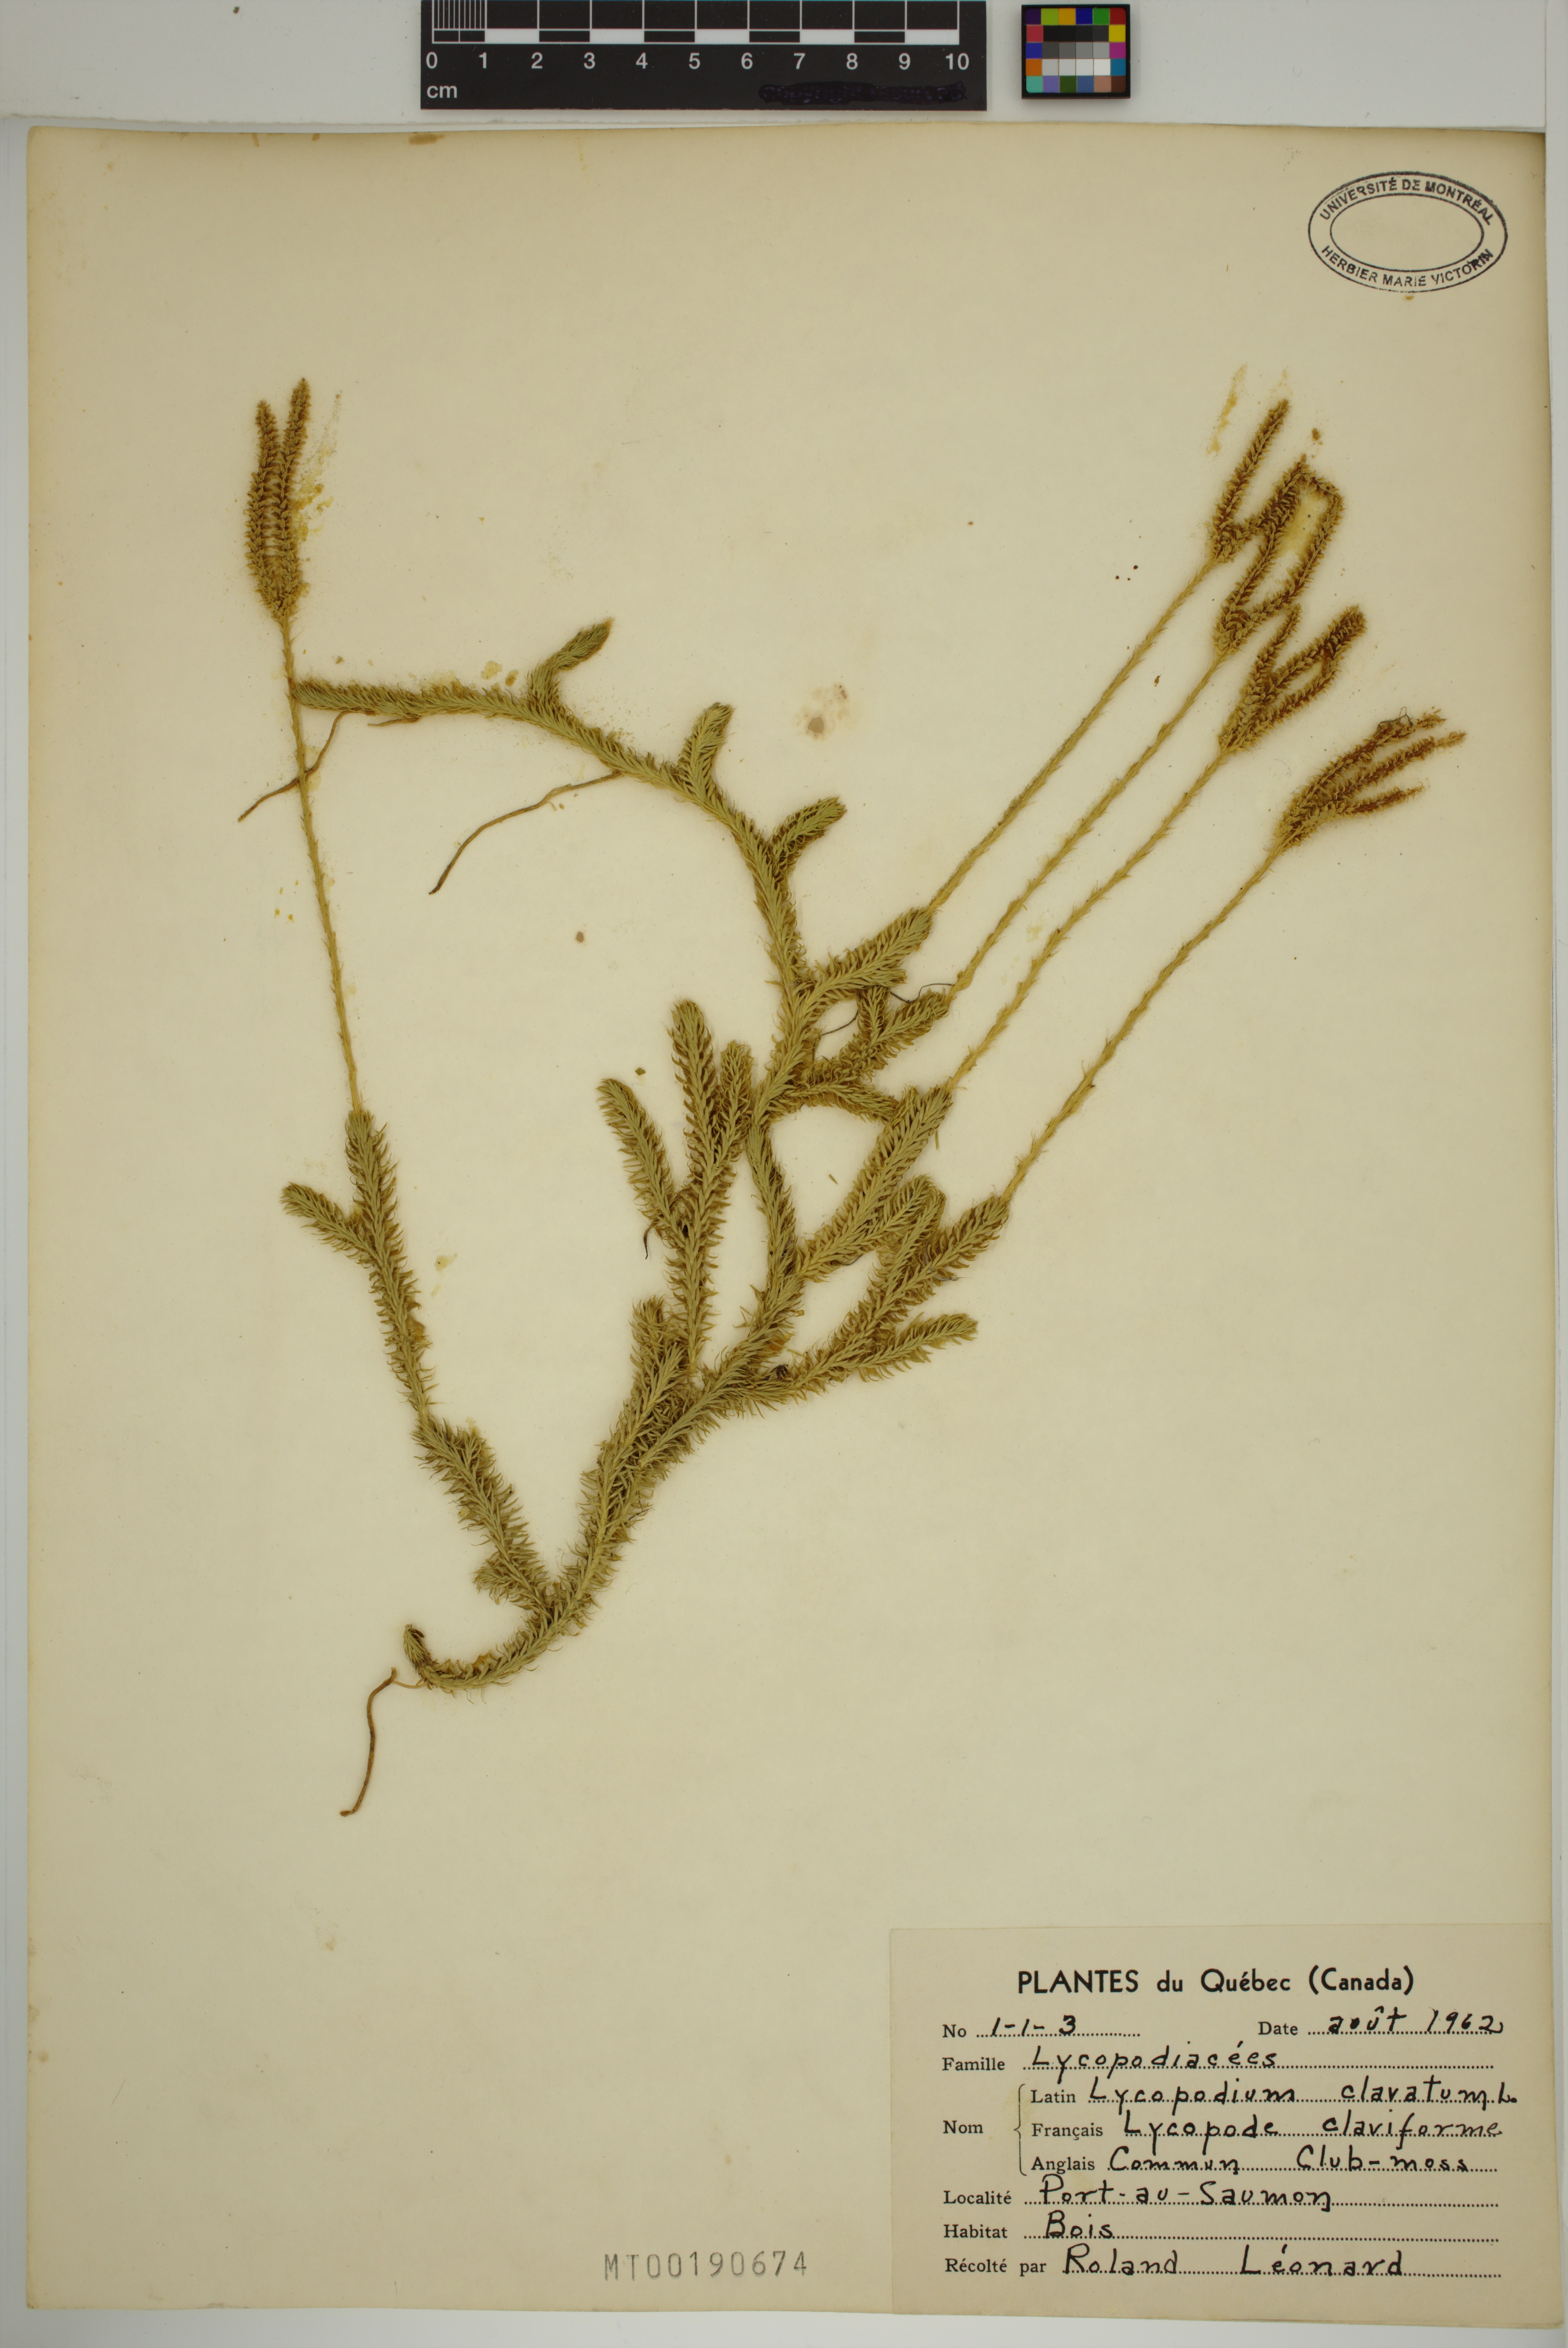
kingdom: Plantae
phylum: Tracheophyta
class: Lycopodiopsida
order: Lycopodiales
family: Lycopodiaceae
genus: Lycopodium
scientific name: Lycopodium clavatum
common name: Stag's-horn clubmoss
